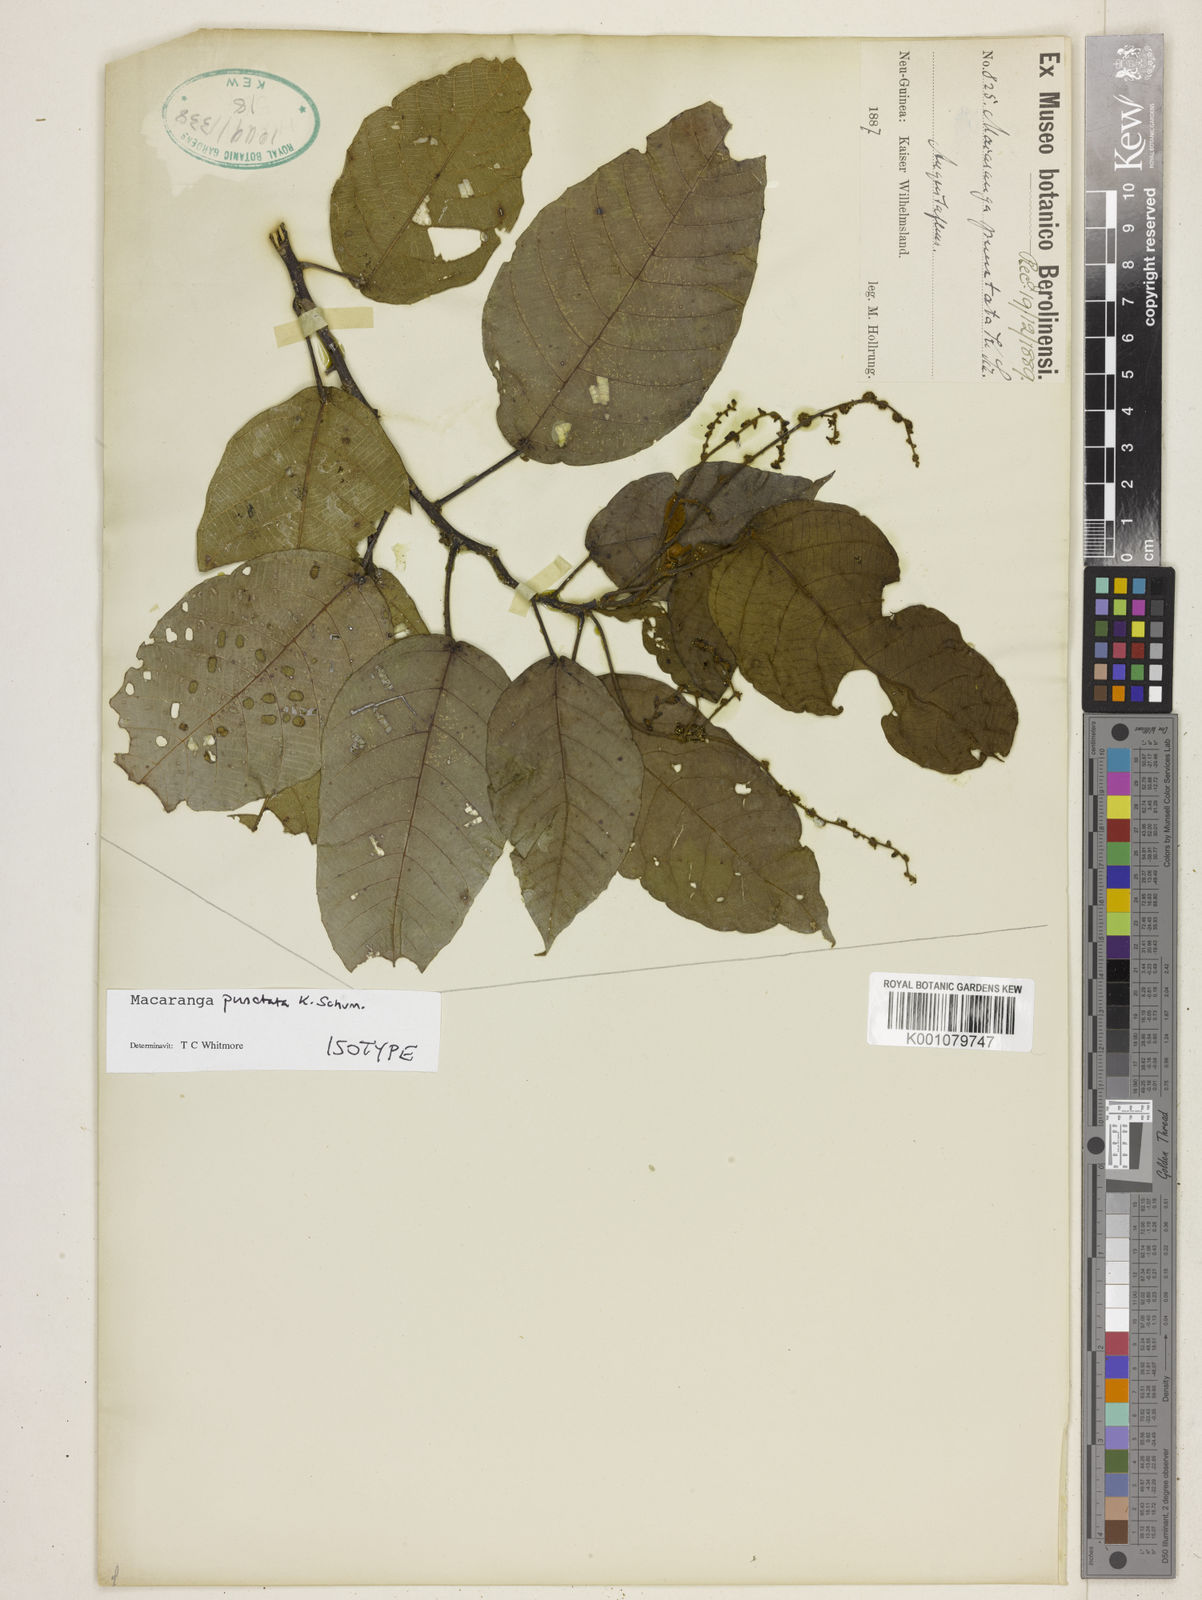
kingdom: Plantae
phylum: Tracheophyta
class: Magnoliopsida
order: Malpighiales
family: Euphorbiaceae
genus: Macaranga
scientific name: Macaranga punctata
